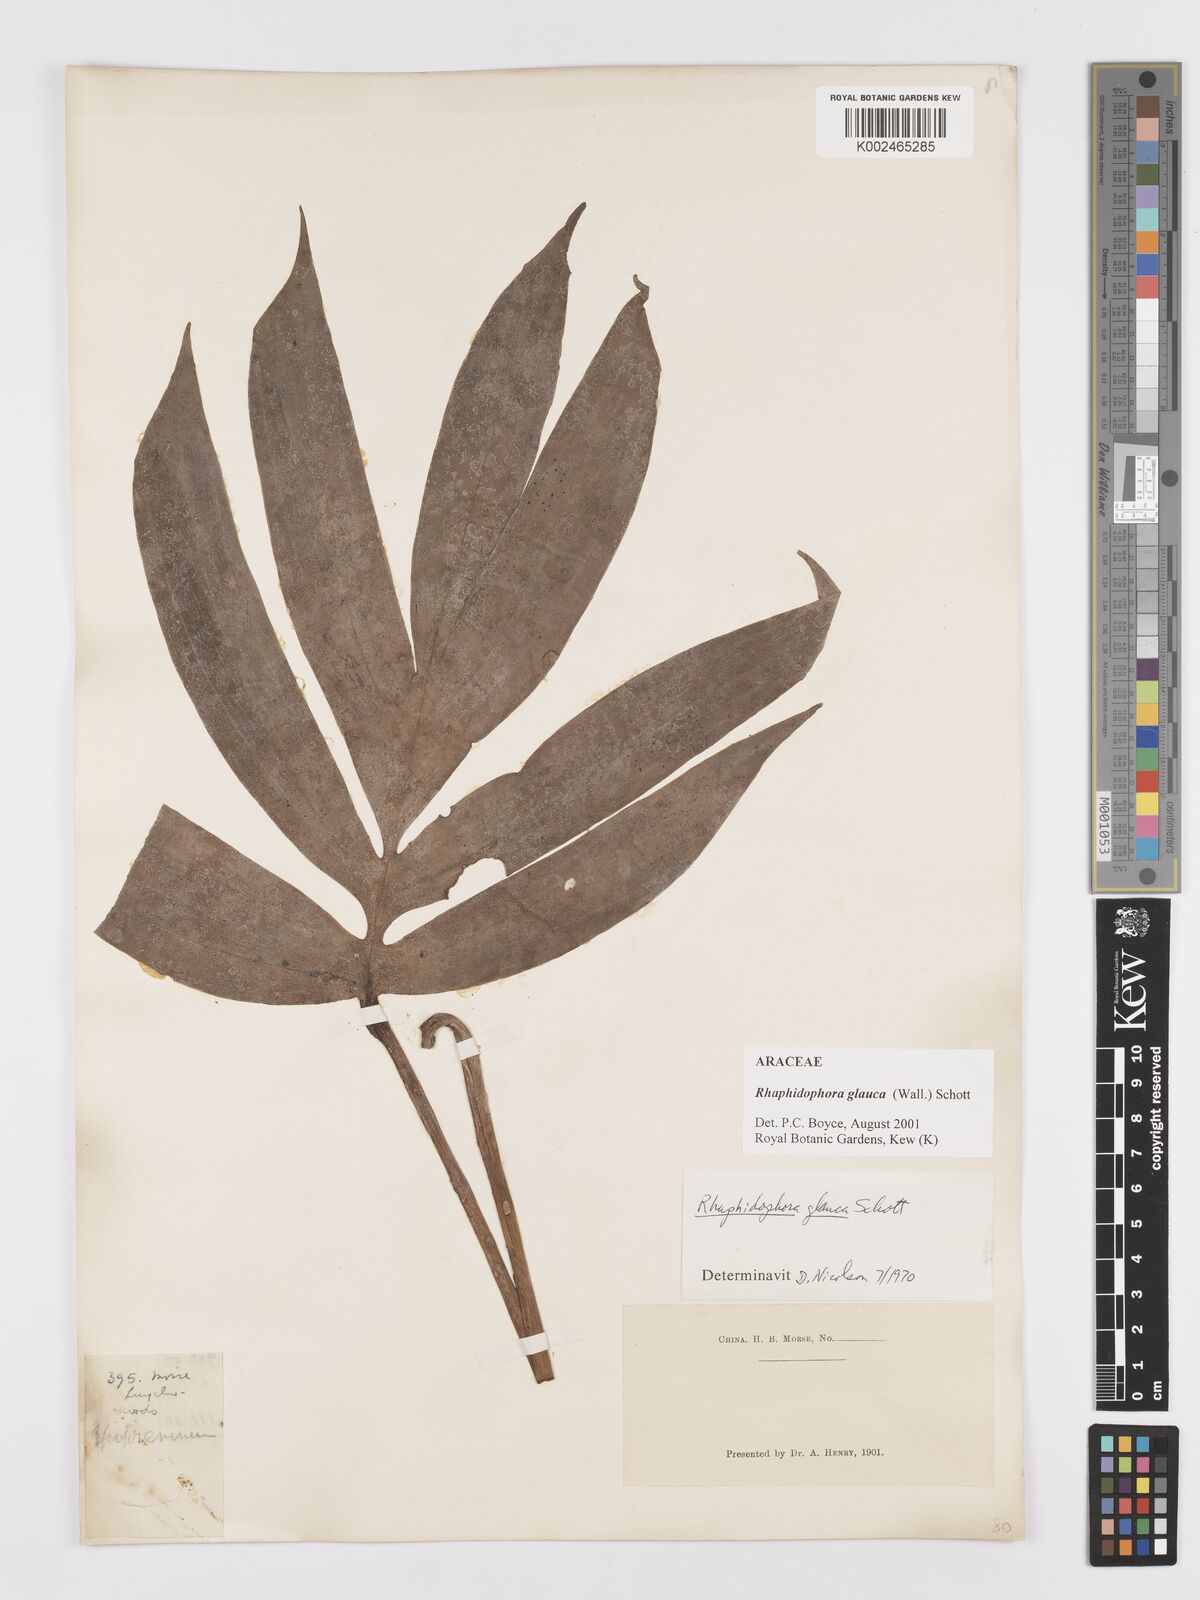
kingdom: Plantae
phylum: Tracheophyta
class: Liliopsida
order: Alismatales
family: Araceae
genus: Rhaphidophora
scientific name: Rhaphidophora glauca
